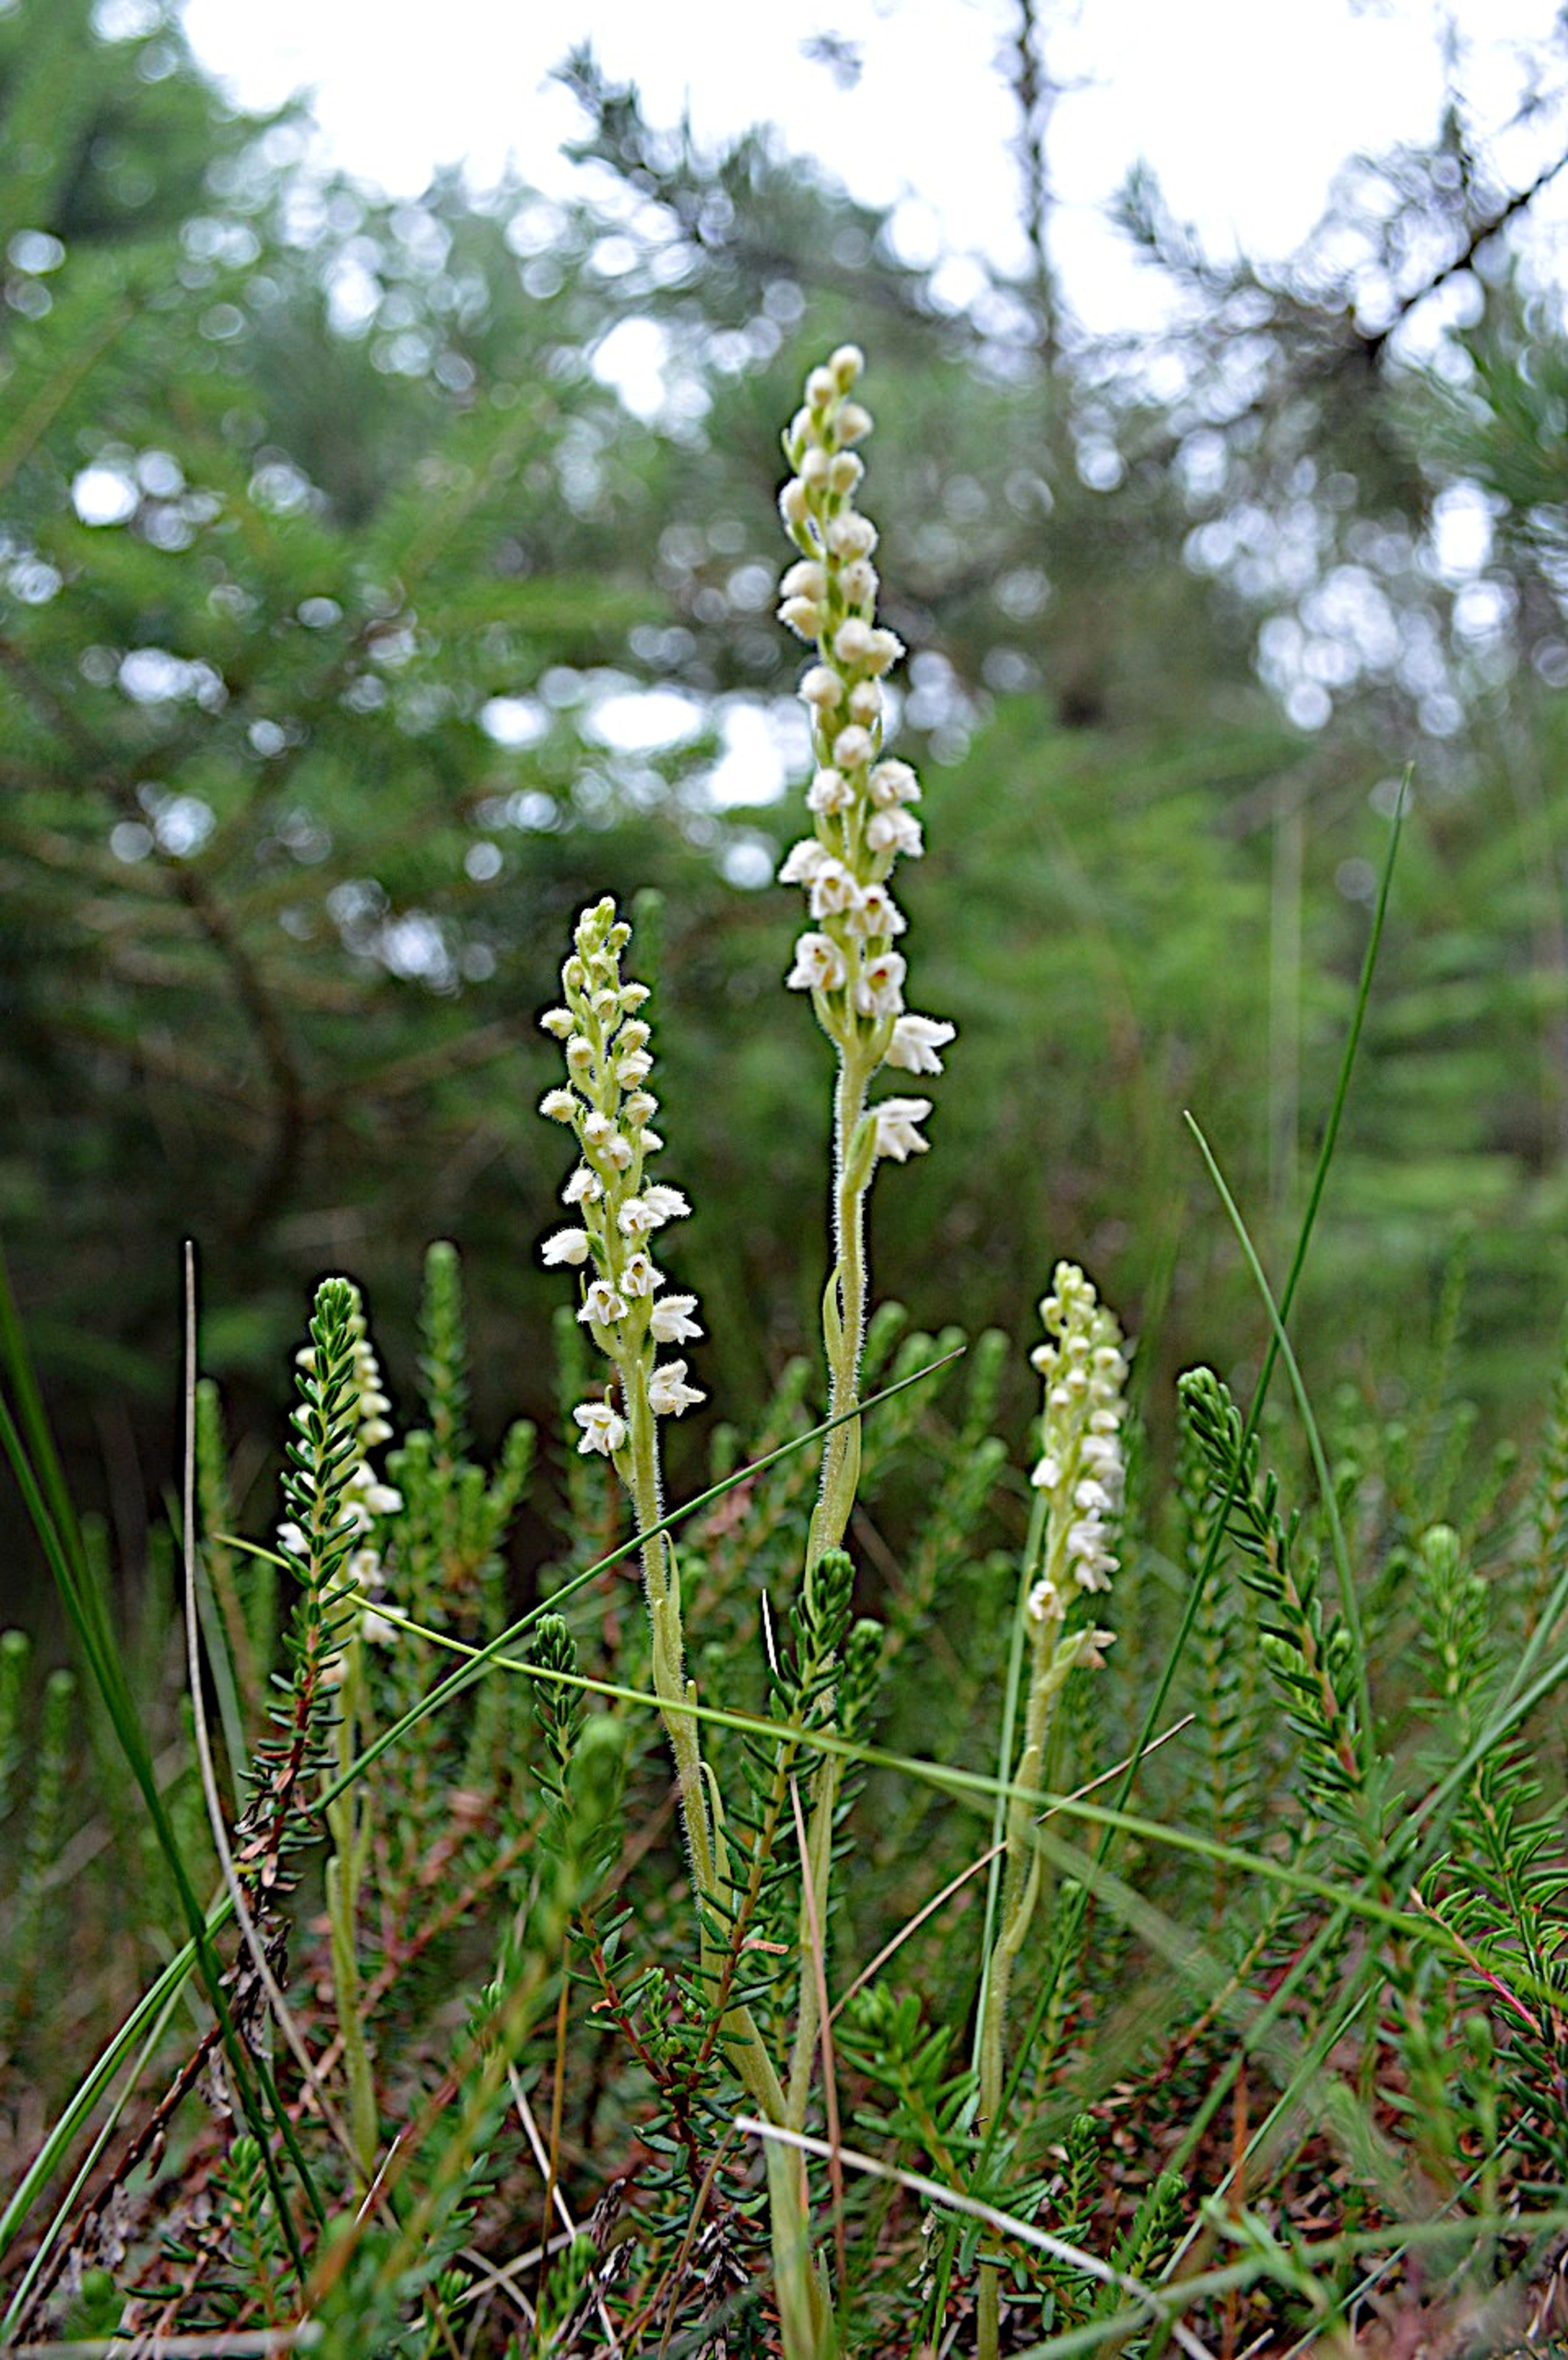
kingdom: Plantae
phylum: Tracheophyta
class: Liliopsida
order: Asparagales
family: Orchidaceae
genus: Goodyera
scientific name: Goodyera repens
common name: Knærod
